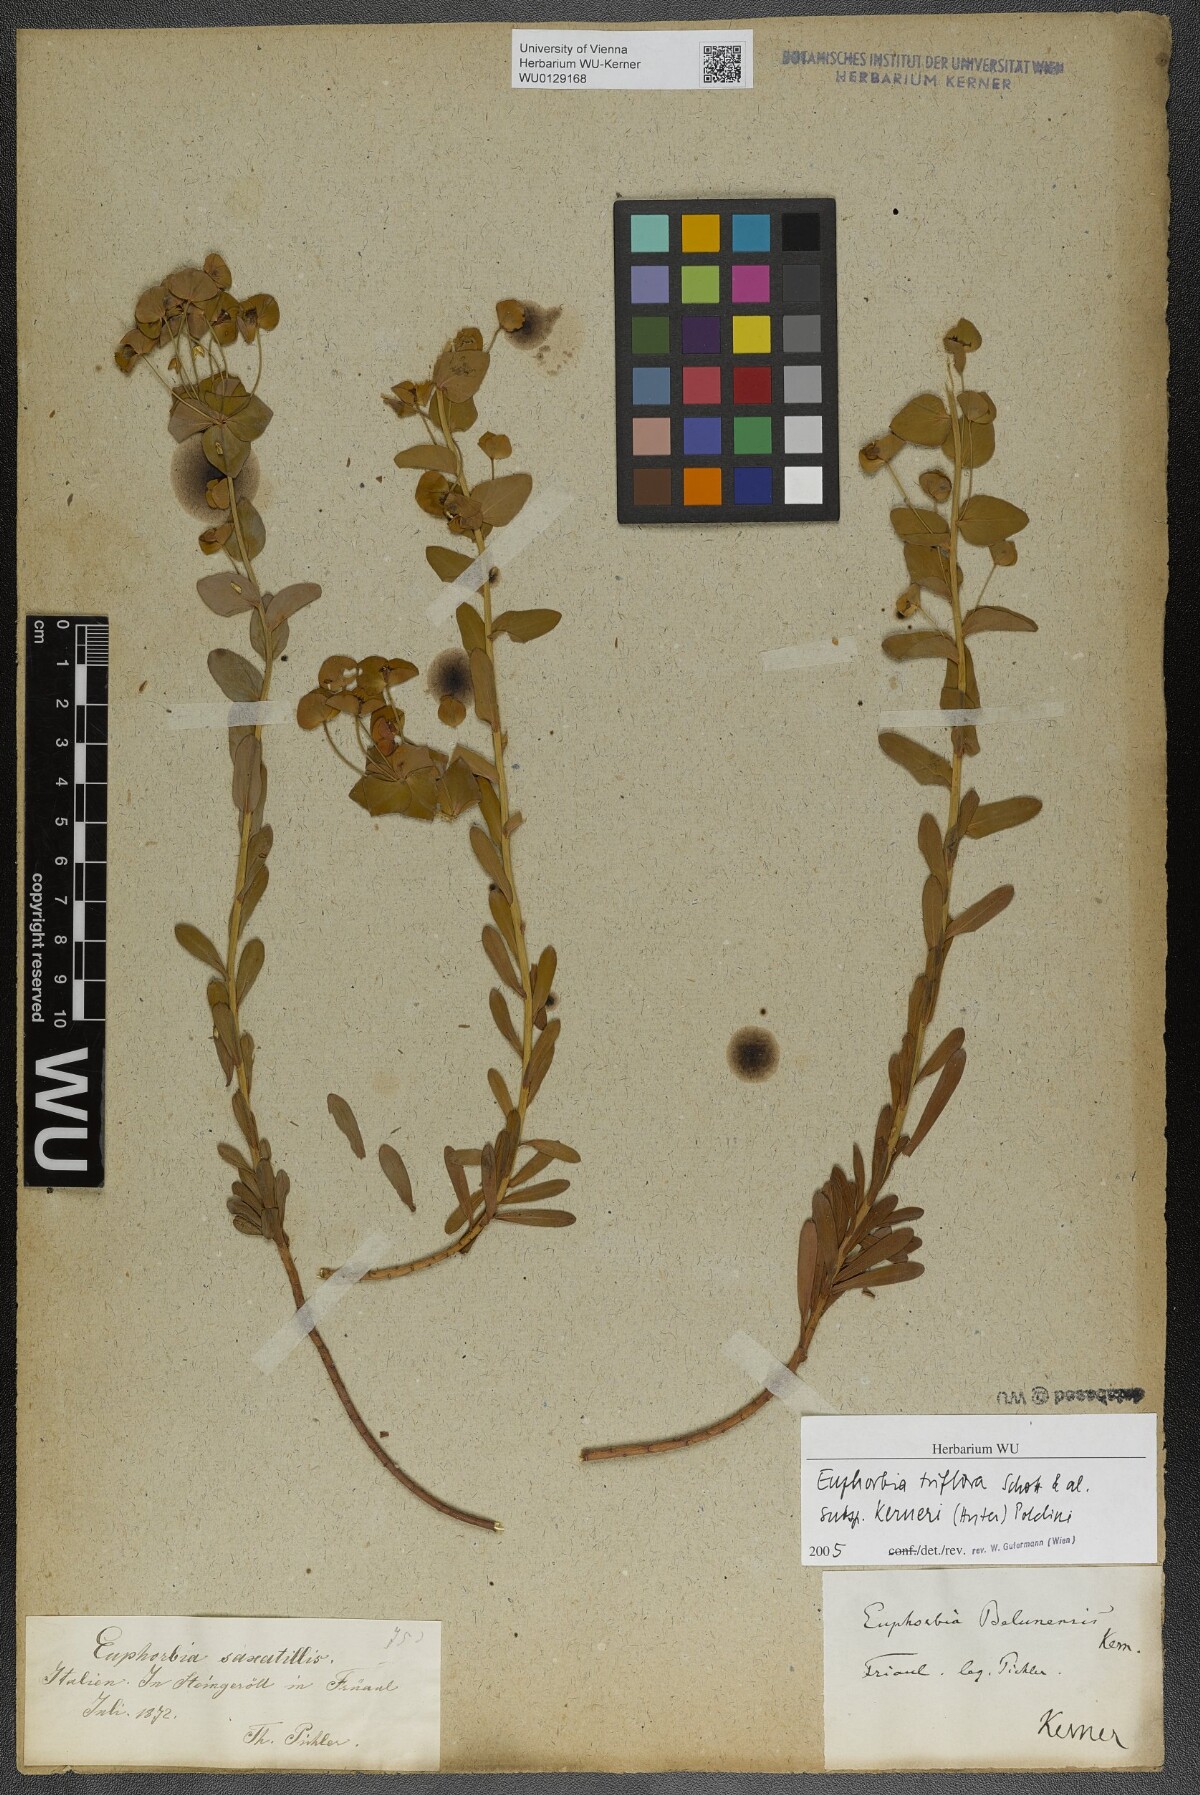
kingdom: Plantae
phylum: Tracheophyta
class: Magnoliopsida
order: Malpighiales
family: Euphorbiaceae
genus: Euphorbia
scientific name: Euphorbia
